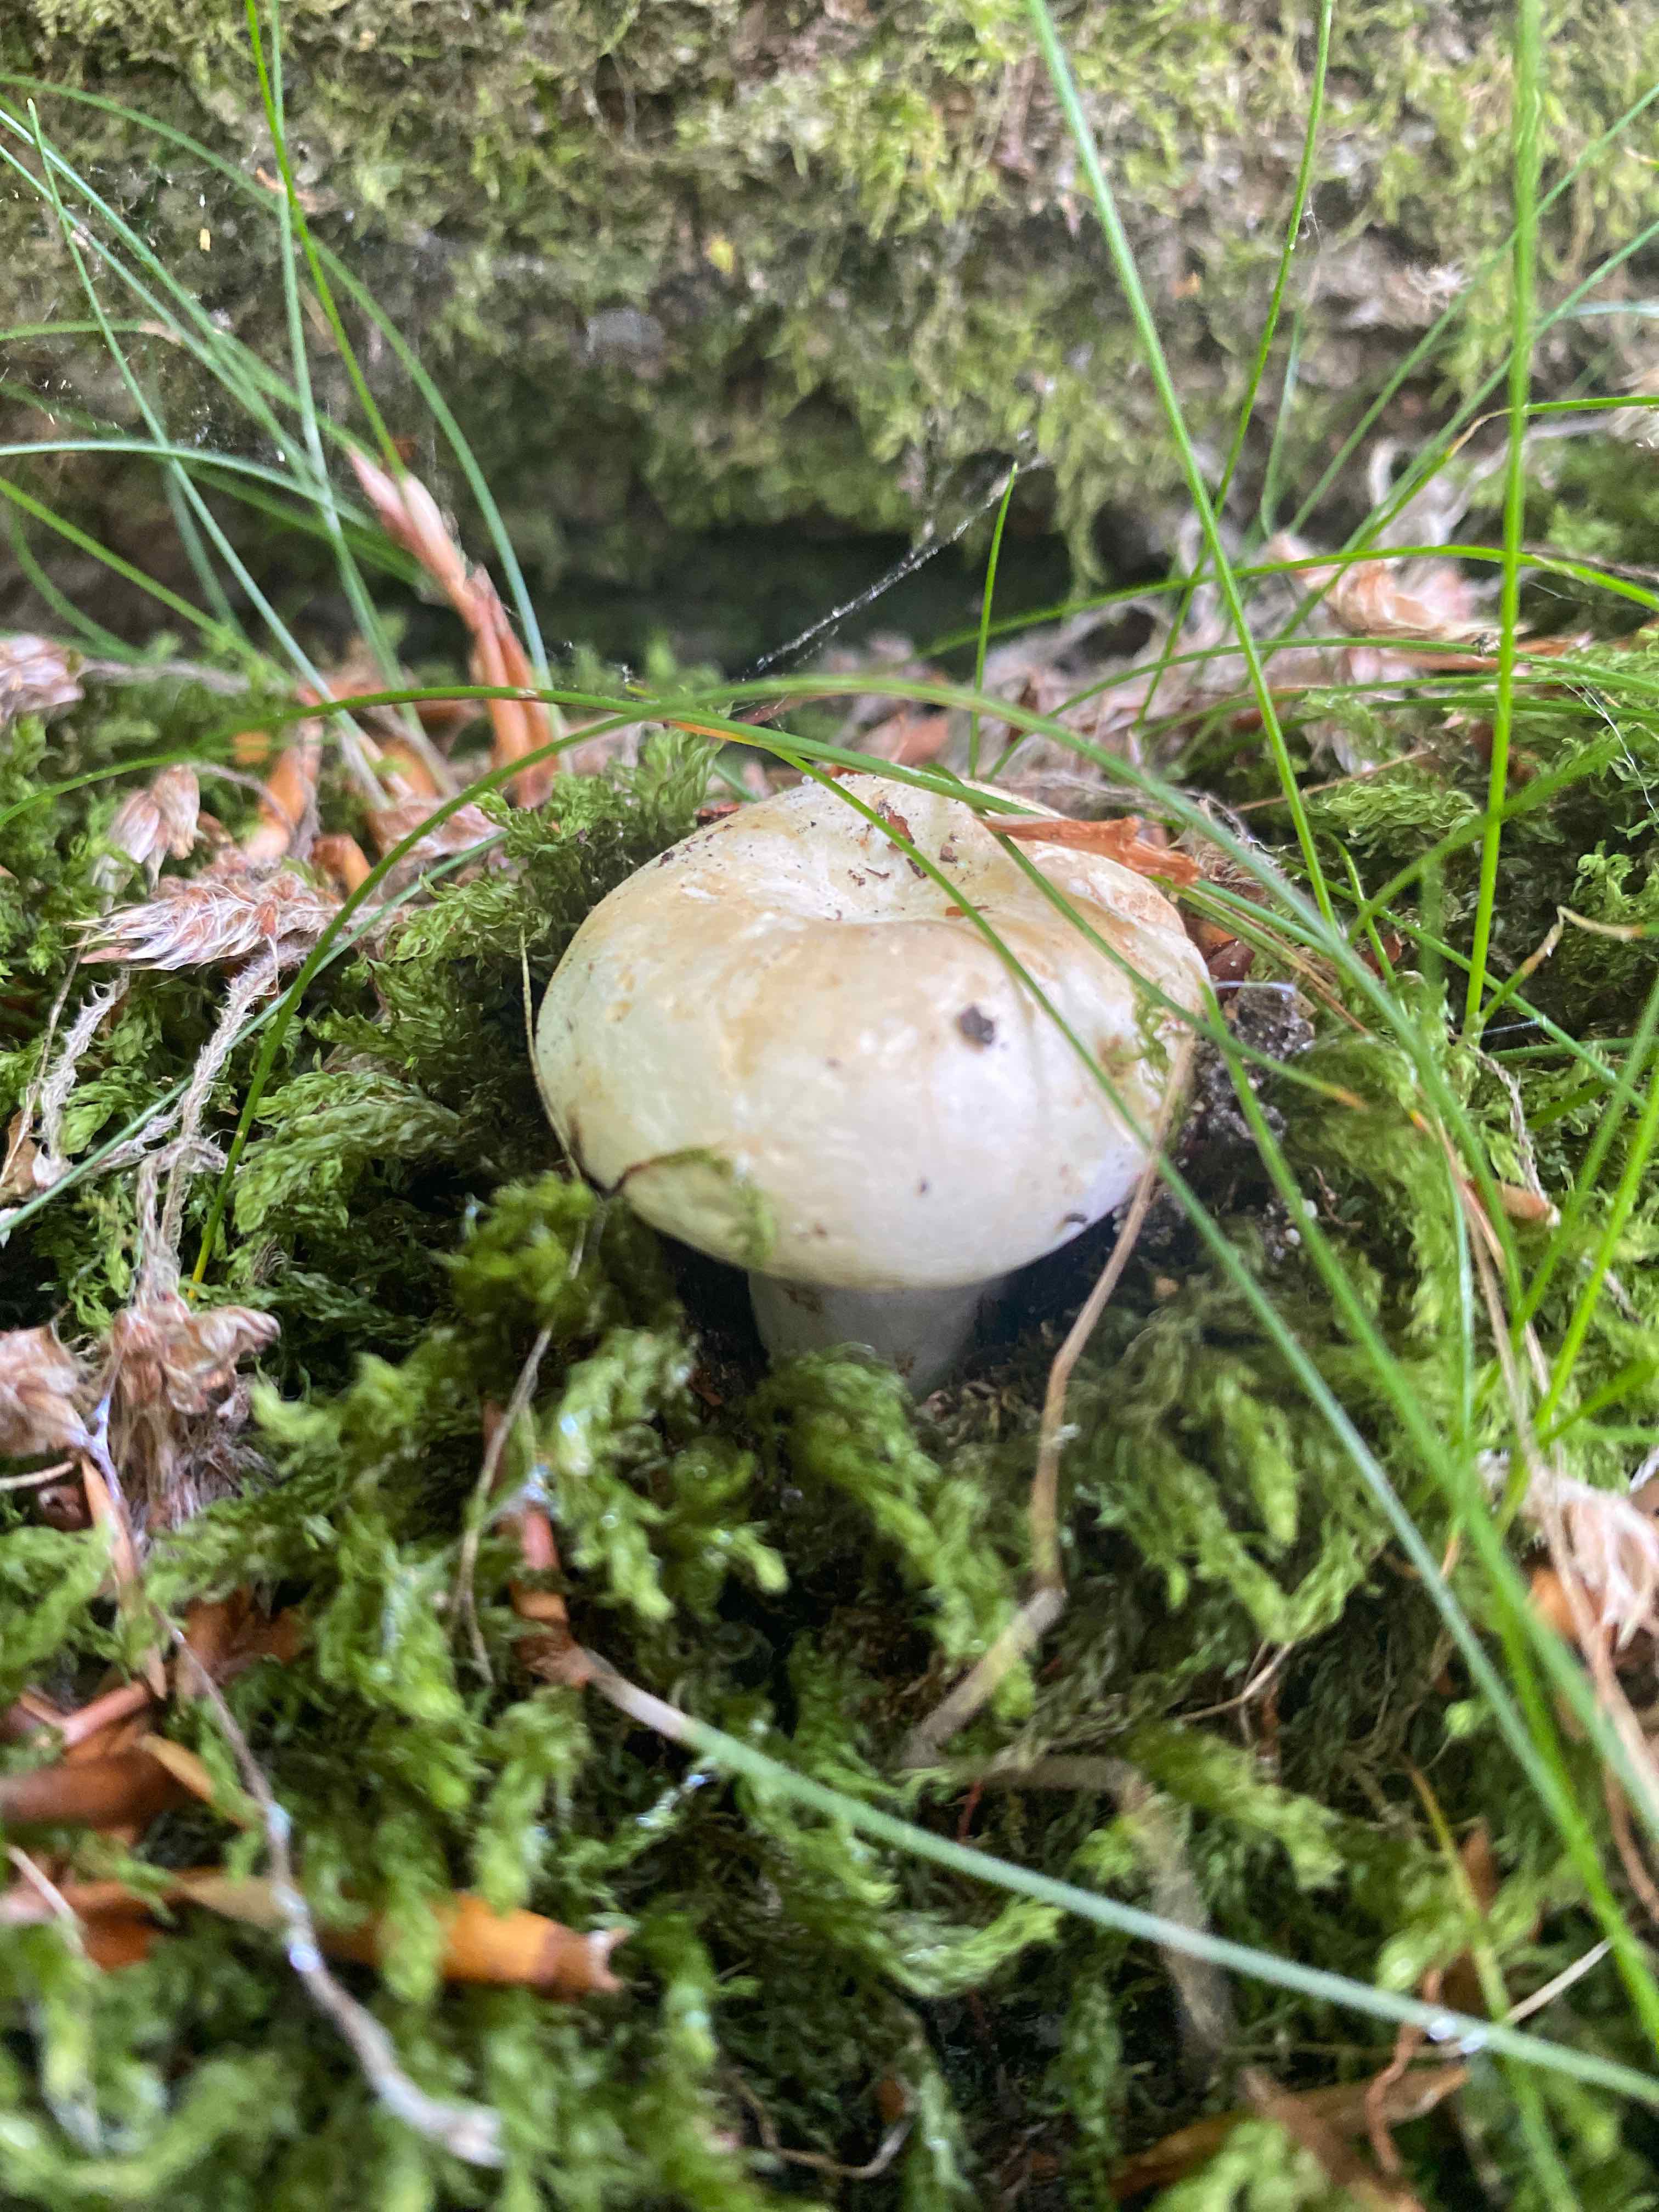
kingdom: Fungi
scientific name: Fungi
